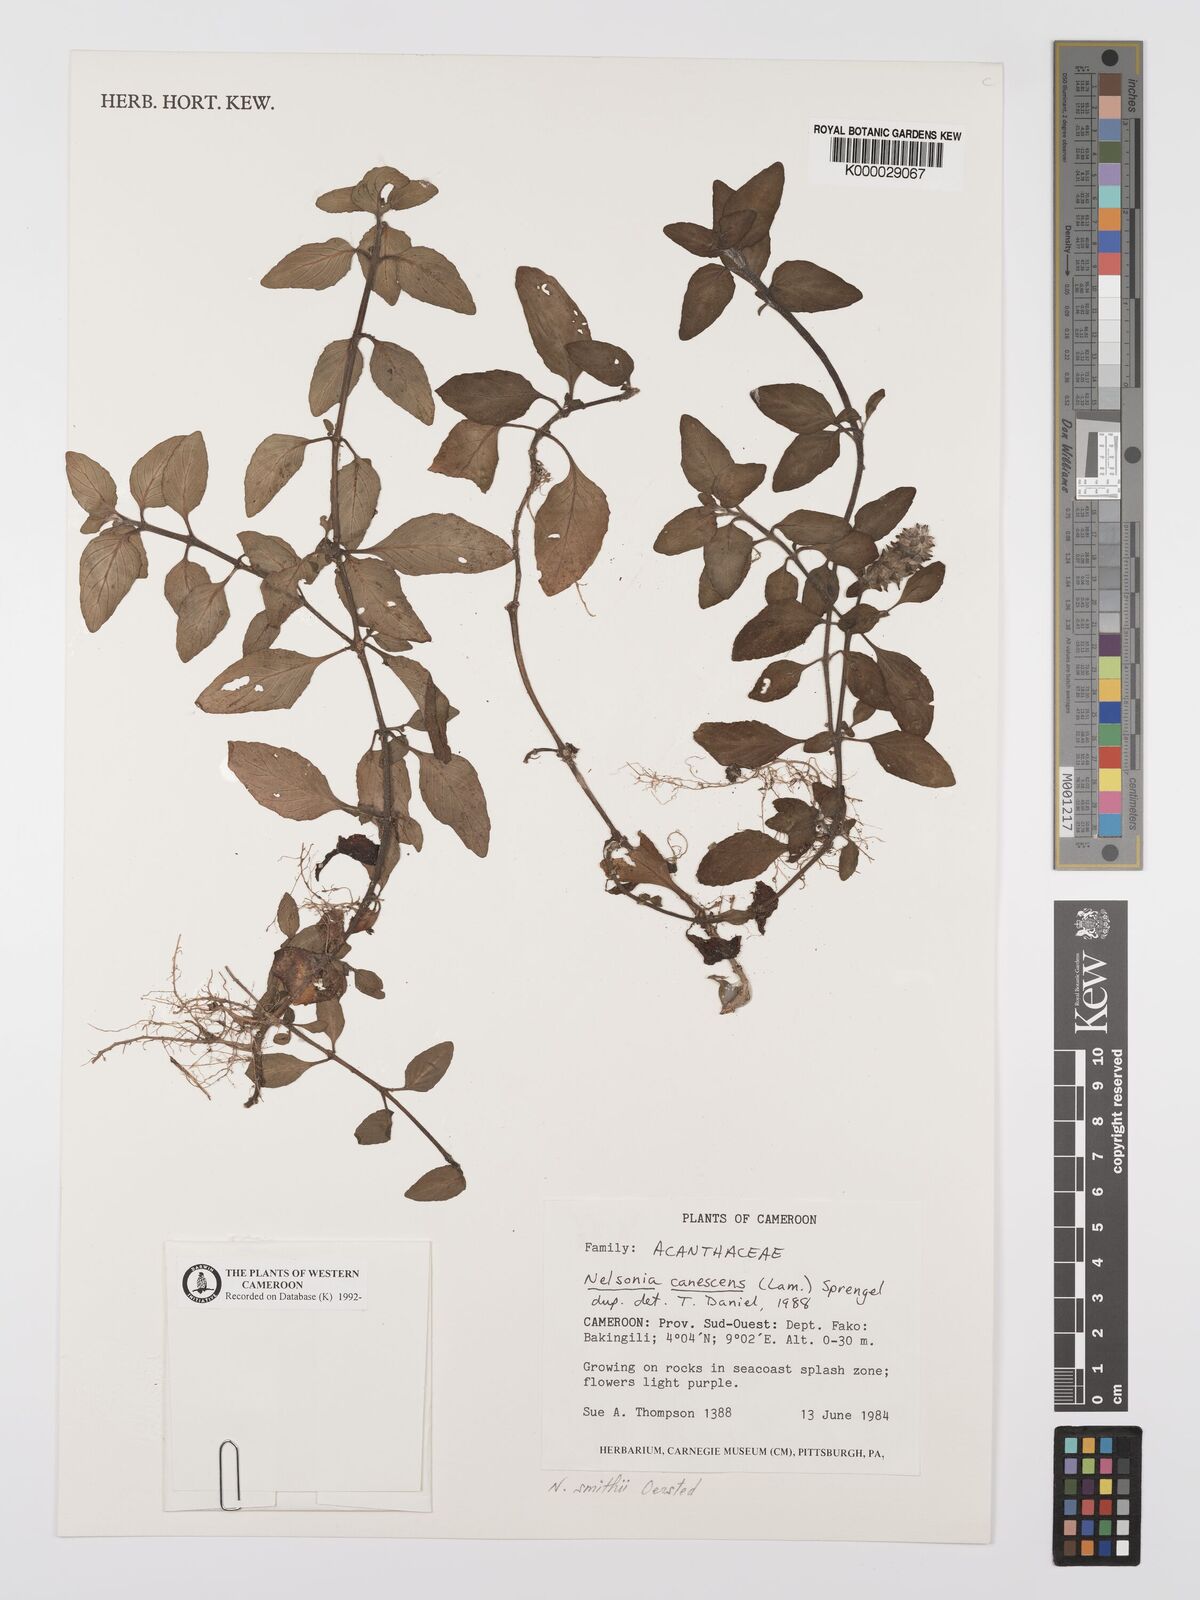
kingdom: Plantae
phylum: Tracheophyta
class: Magnoliopsida
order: Lamiales
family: Acanthaceae
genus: Nelsonia
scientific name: Nelsonia smithii
